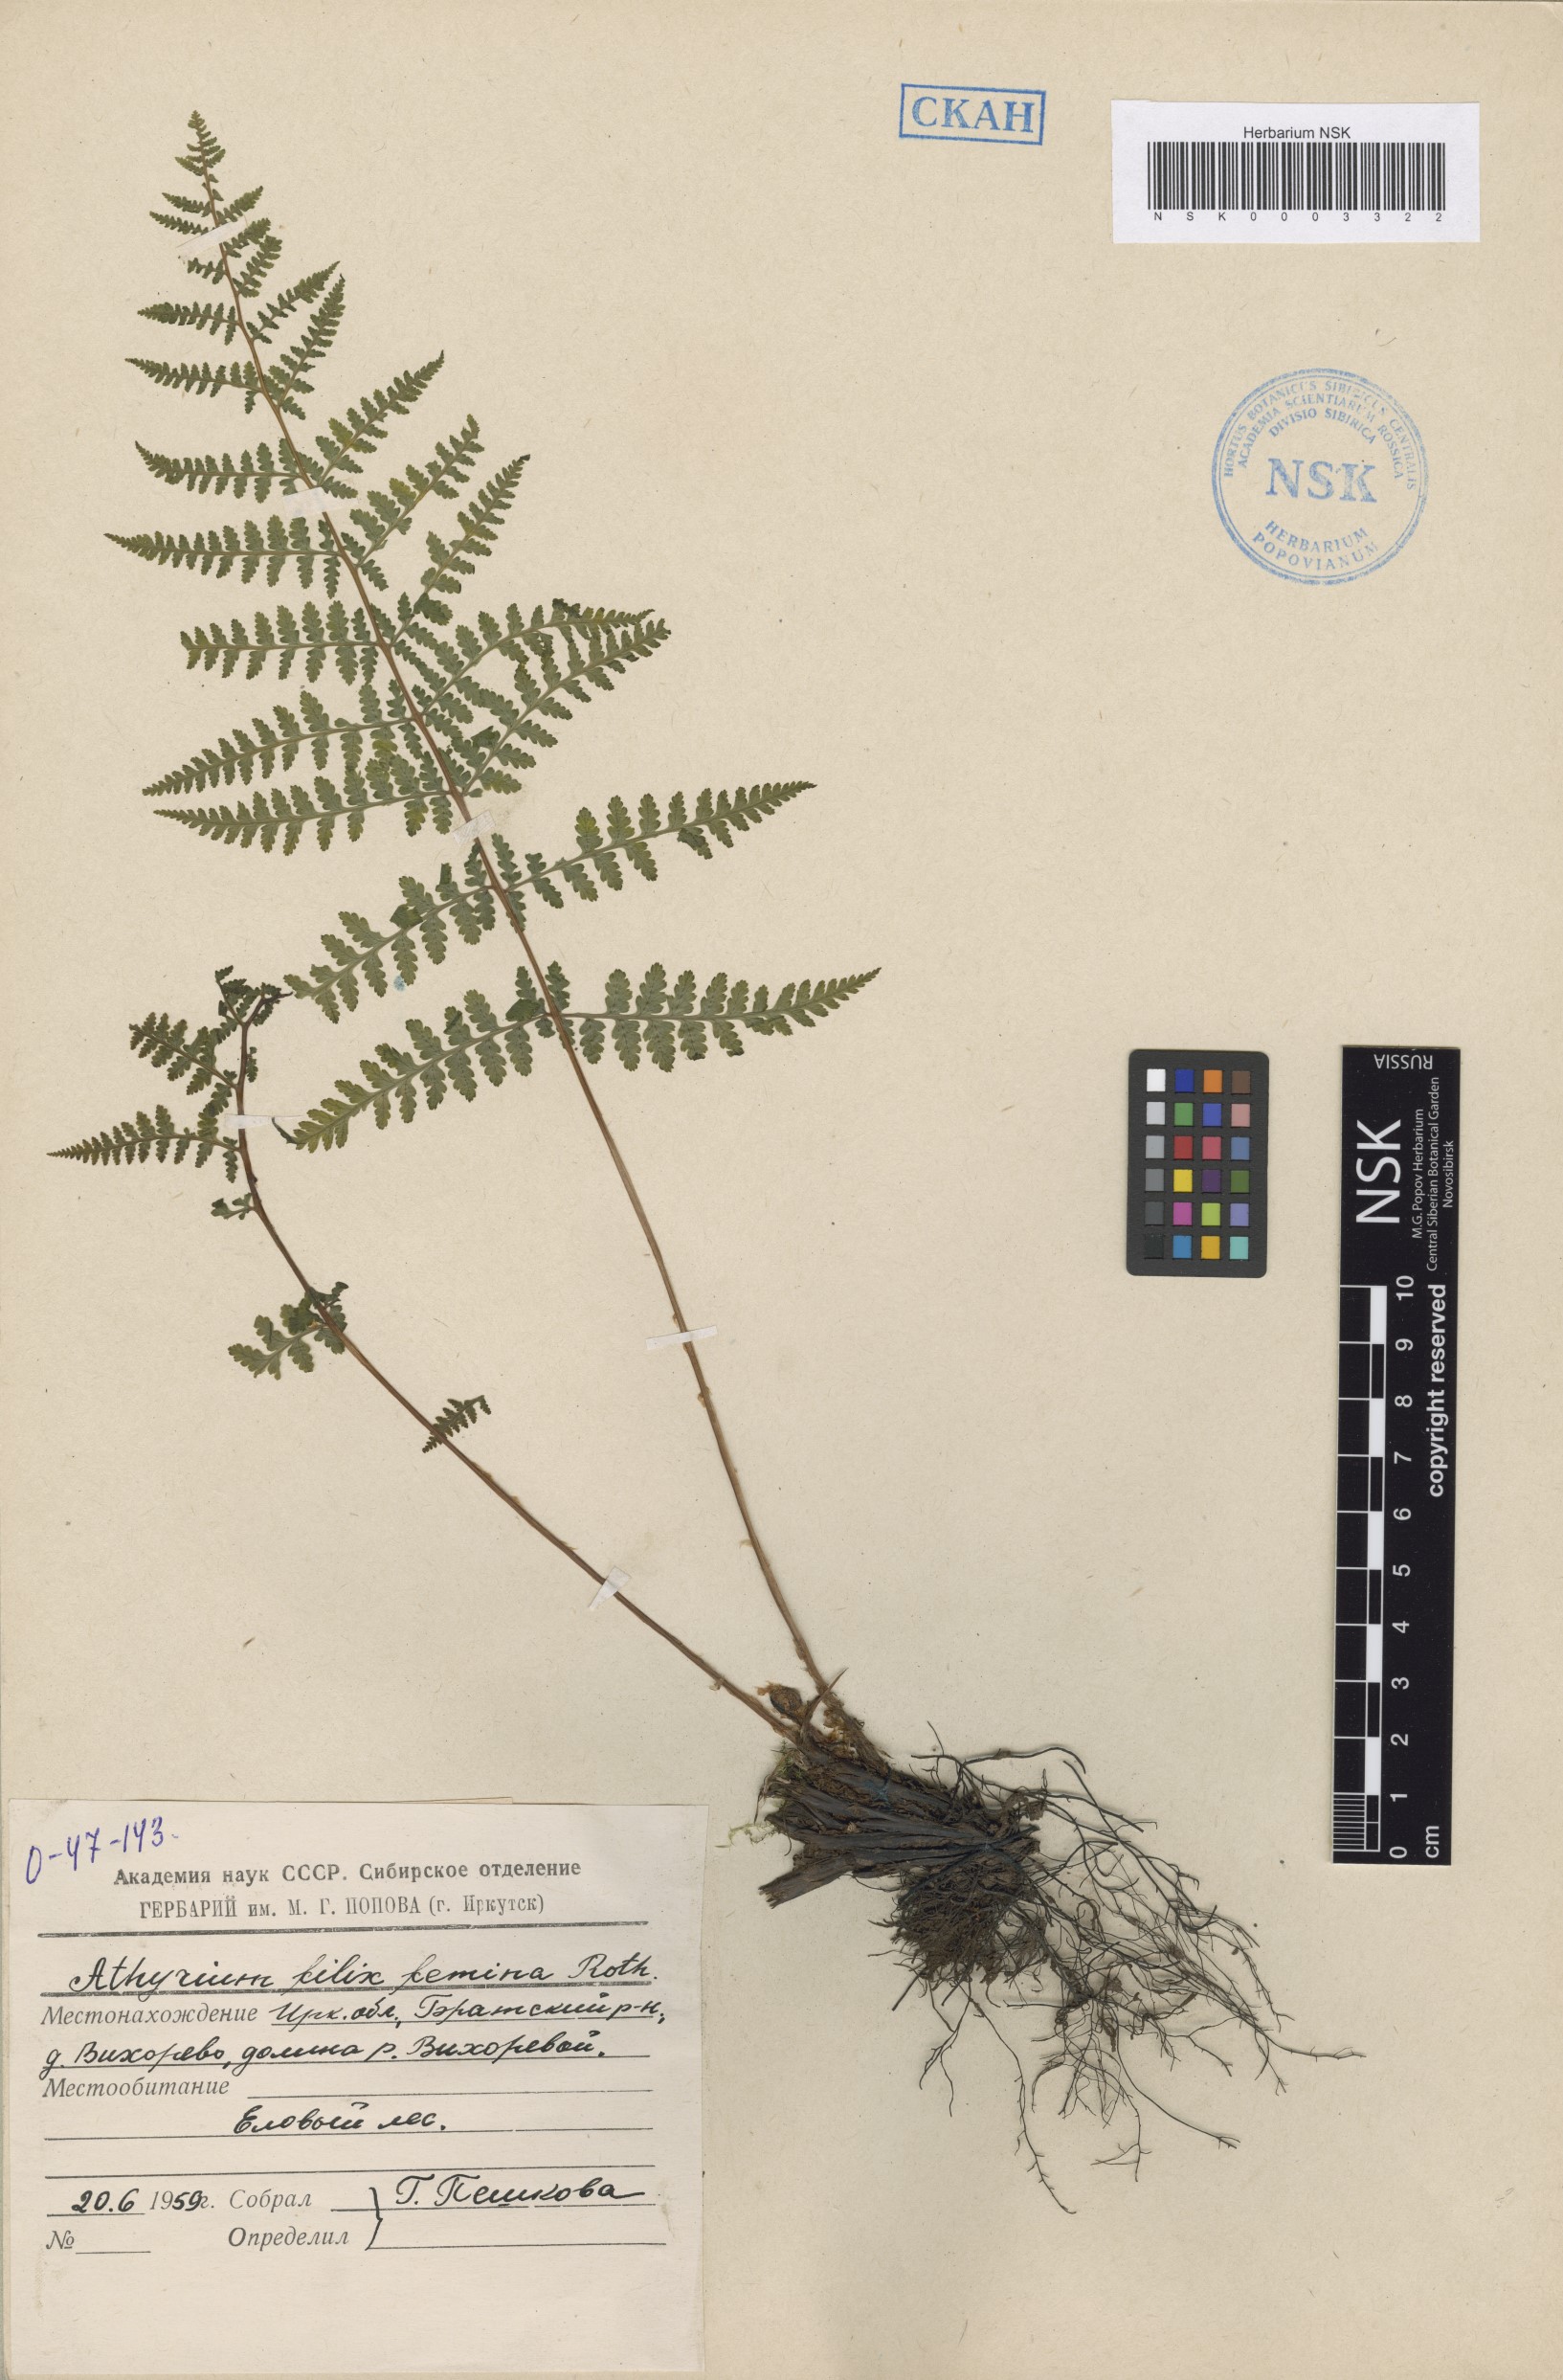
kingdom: Plantae
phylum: Tracheophyta
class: Polypodiopsida
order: Polypodiales
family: Athyriaceae
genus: Athyrium
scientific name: Athyrium filix-femina
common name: Lady fern
